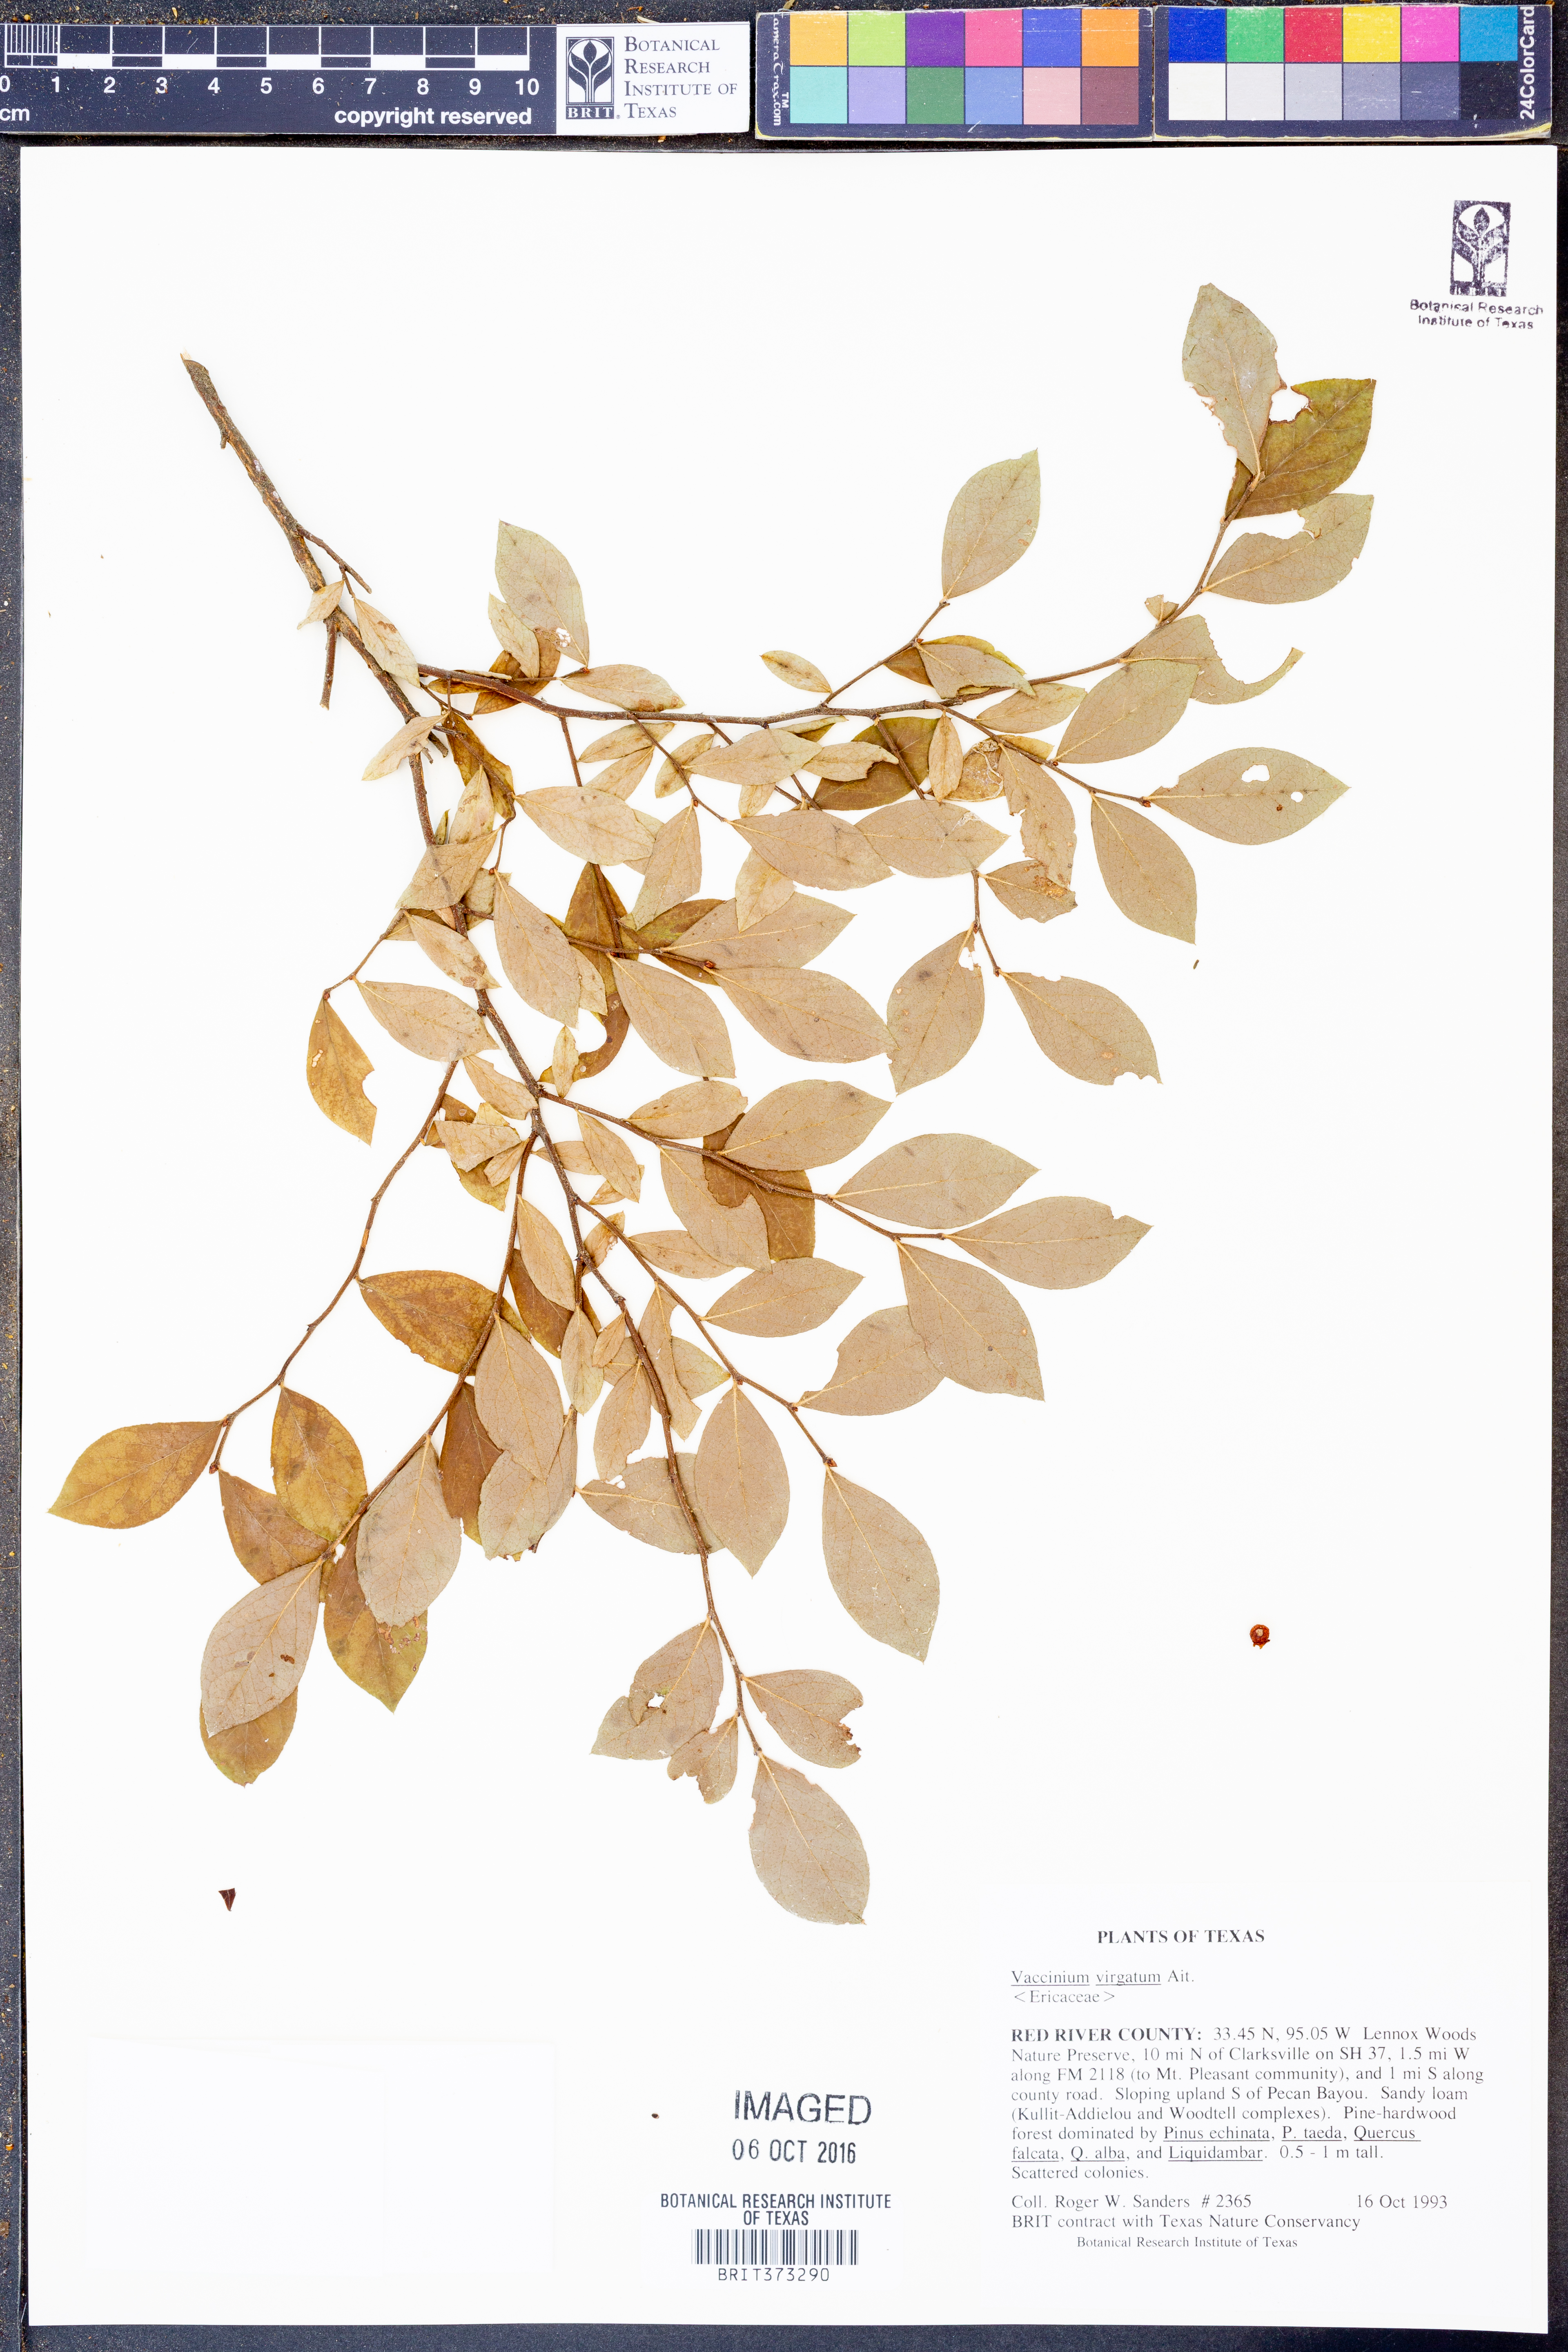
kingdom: Plantae
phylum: Tracheophyta
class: Magnoliopsida
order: Ericales
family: Ericaceae
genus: Vaccinium
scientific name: Vaccinium corymbosum
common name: Blueberry
